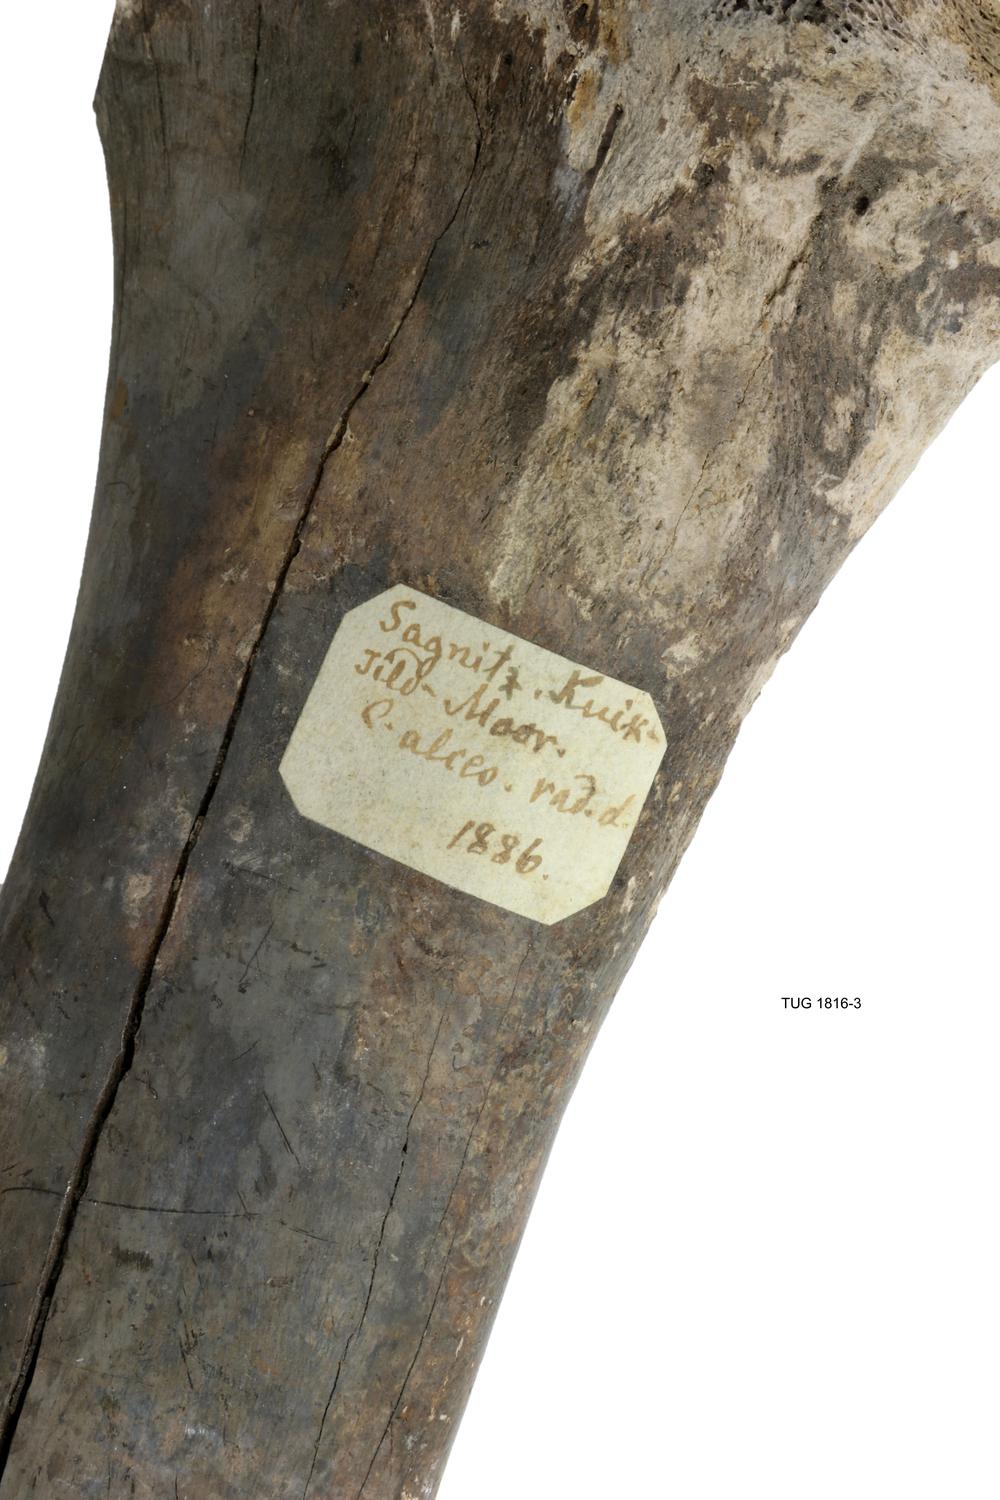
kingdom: Animalia
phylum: Chordata
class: Mammalia
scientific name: Mammalia
